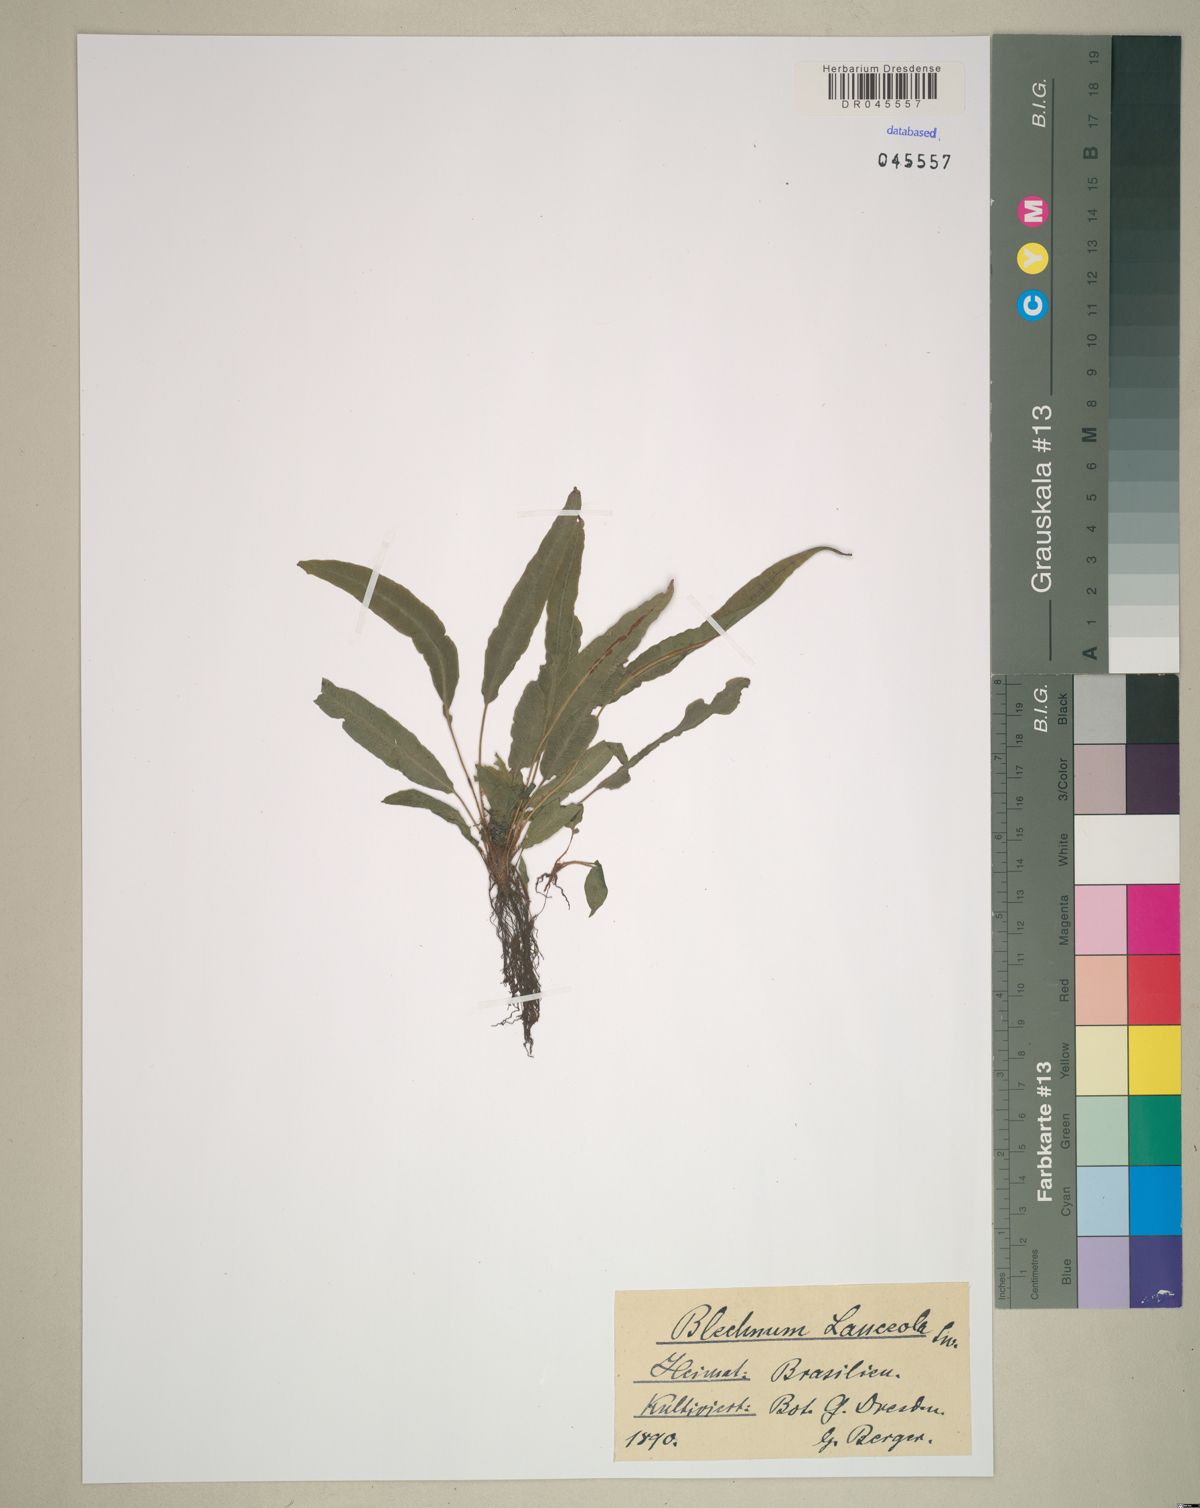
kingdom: Plantae
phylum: Tracheophyta
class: Polypodiopsida
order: Polypodiales
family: Blechnaceae
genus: Blechnum
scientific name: Blechnum lanceola
